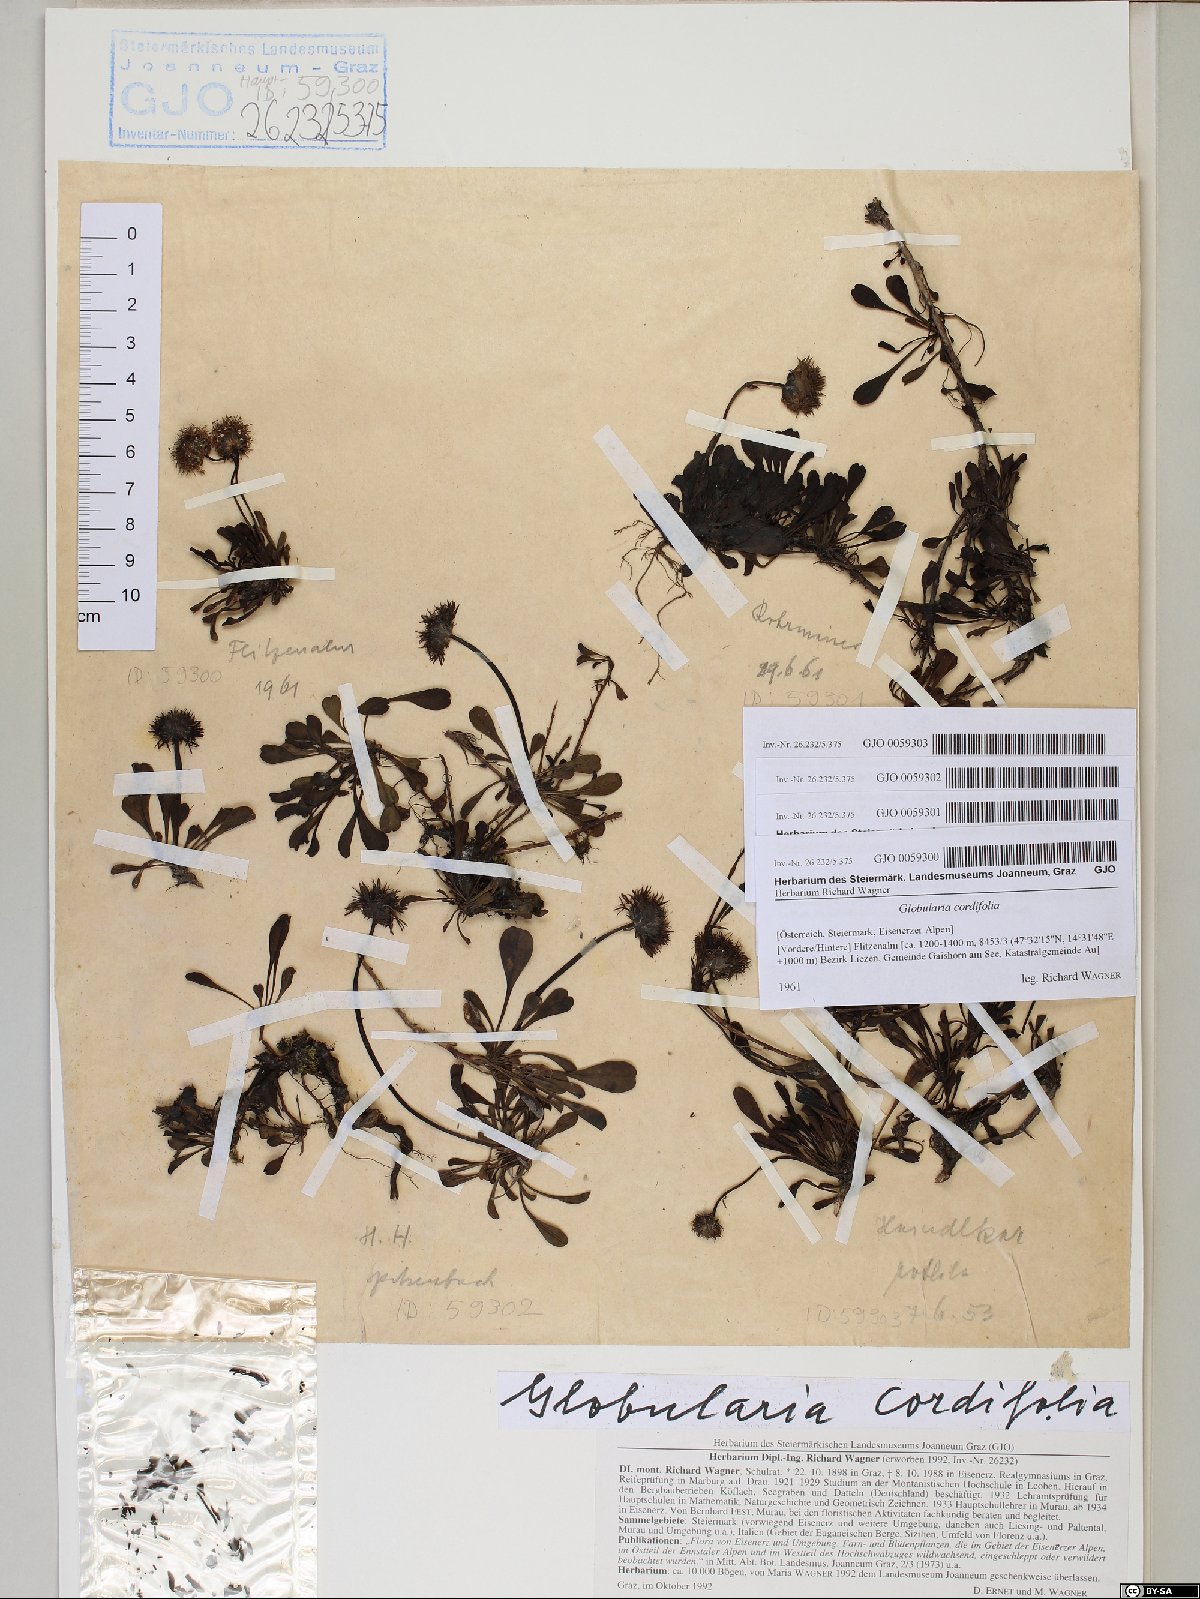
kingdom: Plantae
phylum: Tracheophyta
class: Magnoliopsida
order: Lamiales
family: Plantaginaceae
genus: Globularia
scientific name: Globularia cordifolia
